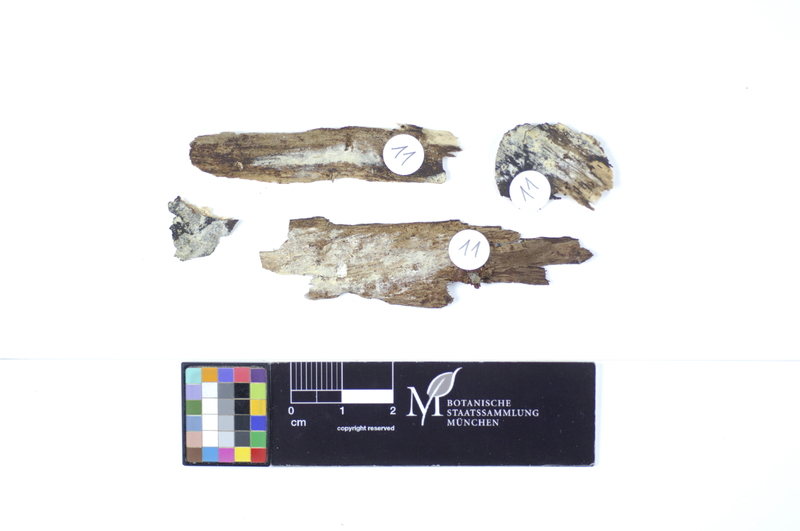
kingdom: Fungi
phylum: Basidiomycota
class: Agaricomycetes
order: Hymenochaetales
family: Rickenellaceae
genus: Peniophorella
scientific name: Peniophorella praetermissa
